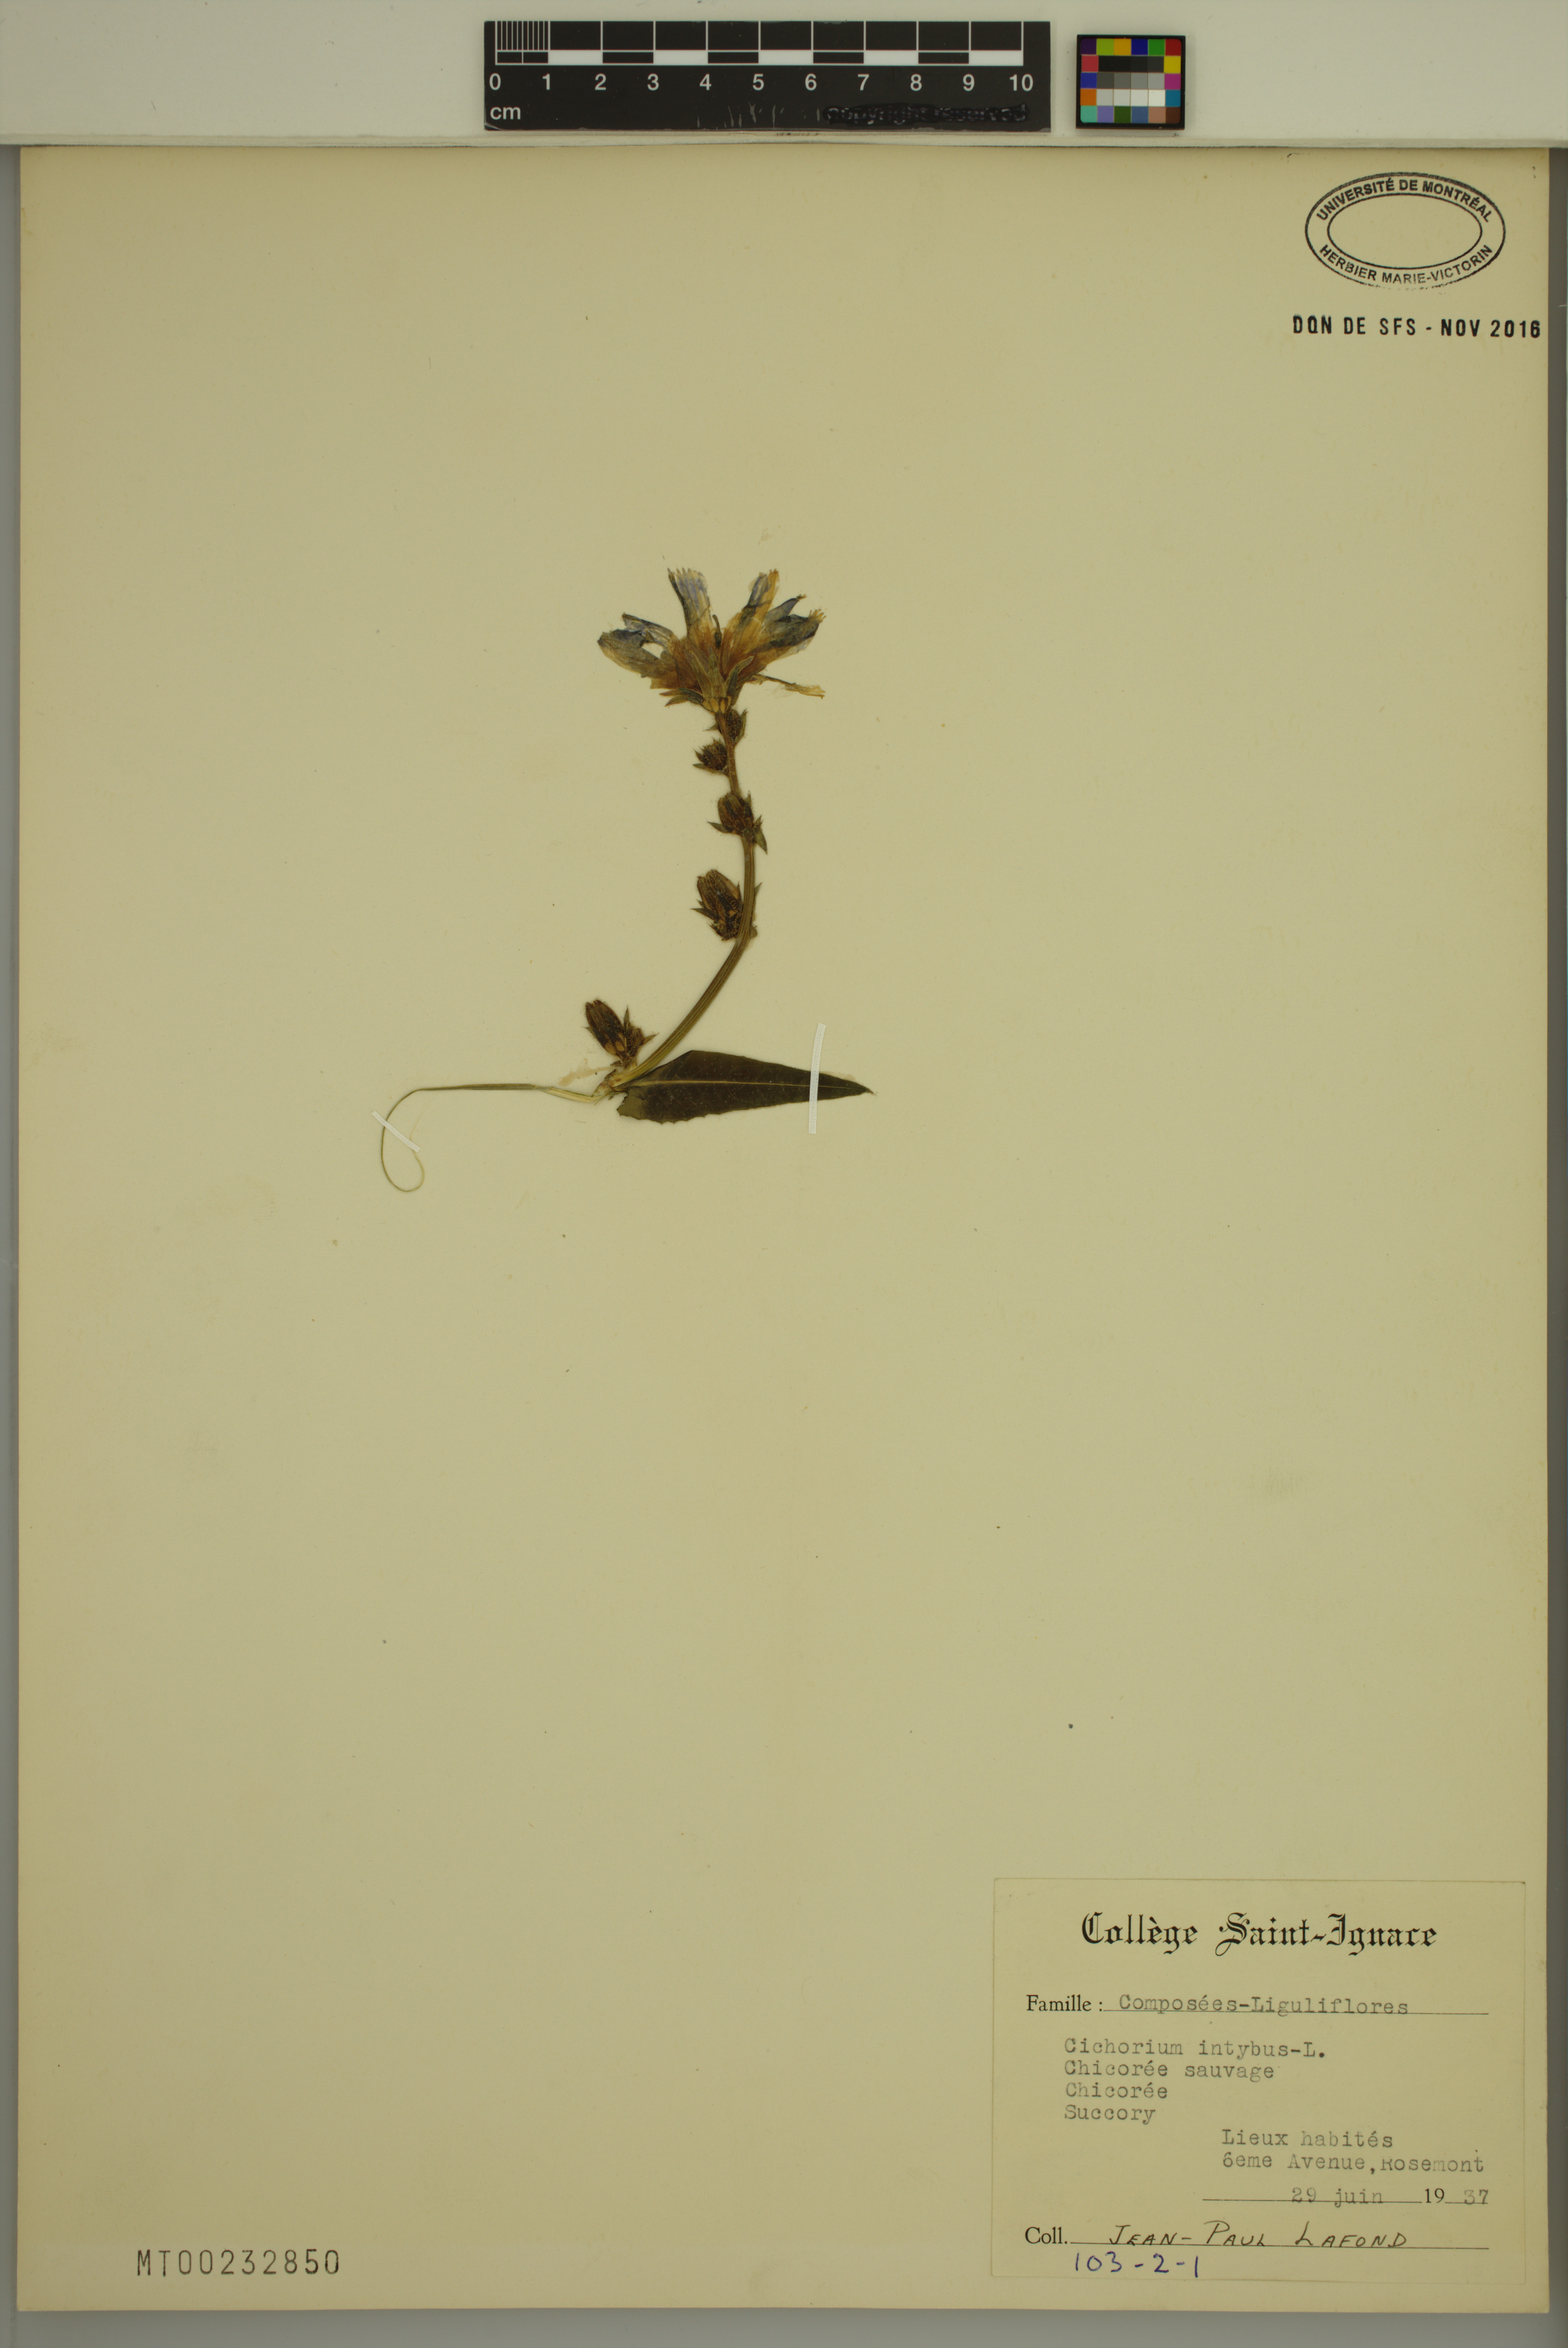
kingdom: Plantae
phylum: Tracheophyta
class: Magnoliopsida
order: Asterales
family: Asteraceae
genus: Cichorium
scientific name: Cichorium intybus
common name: Chicory
